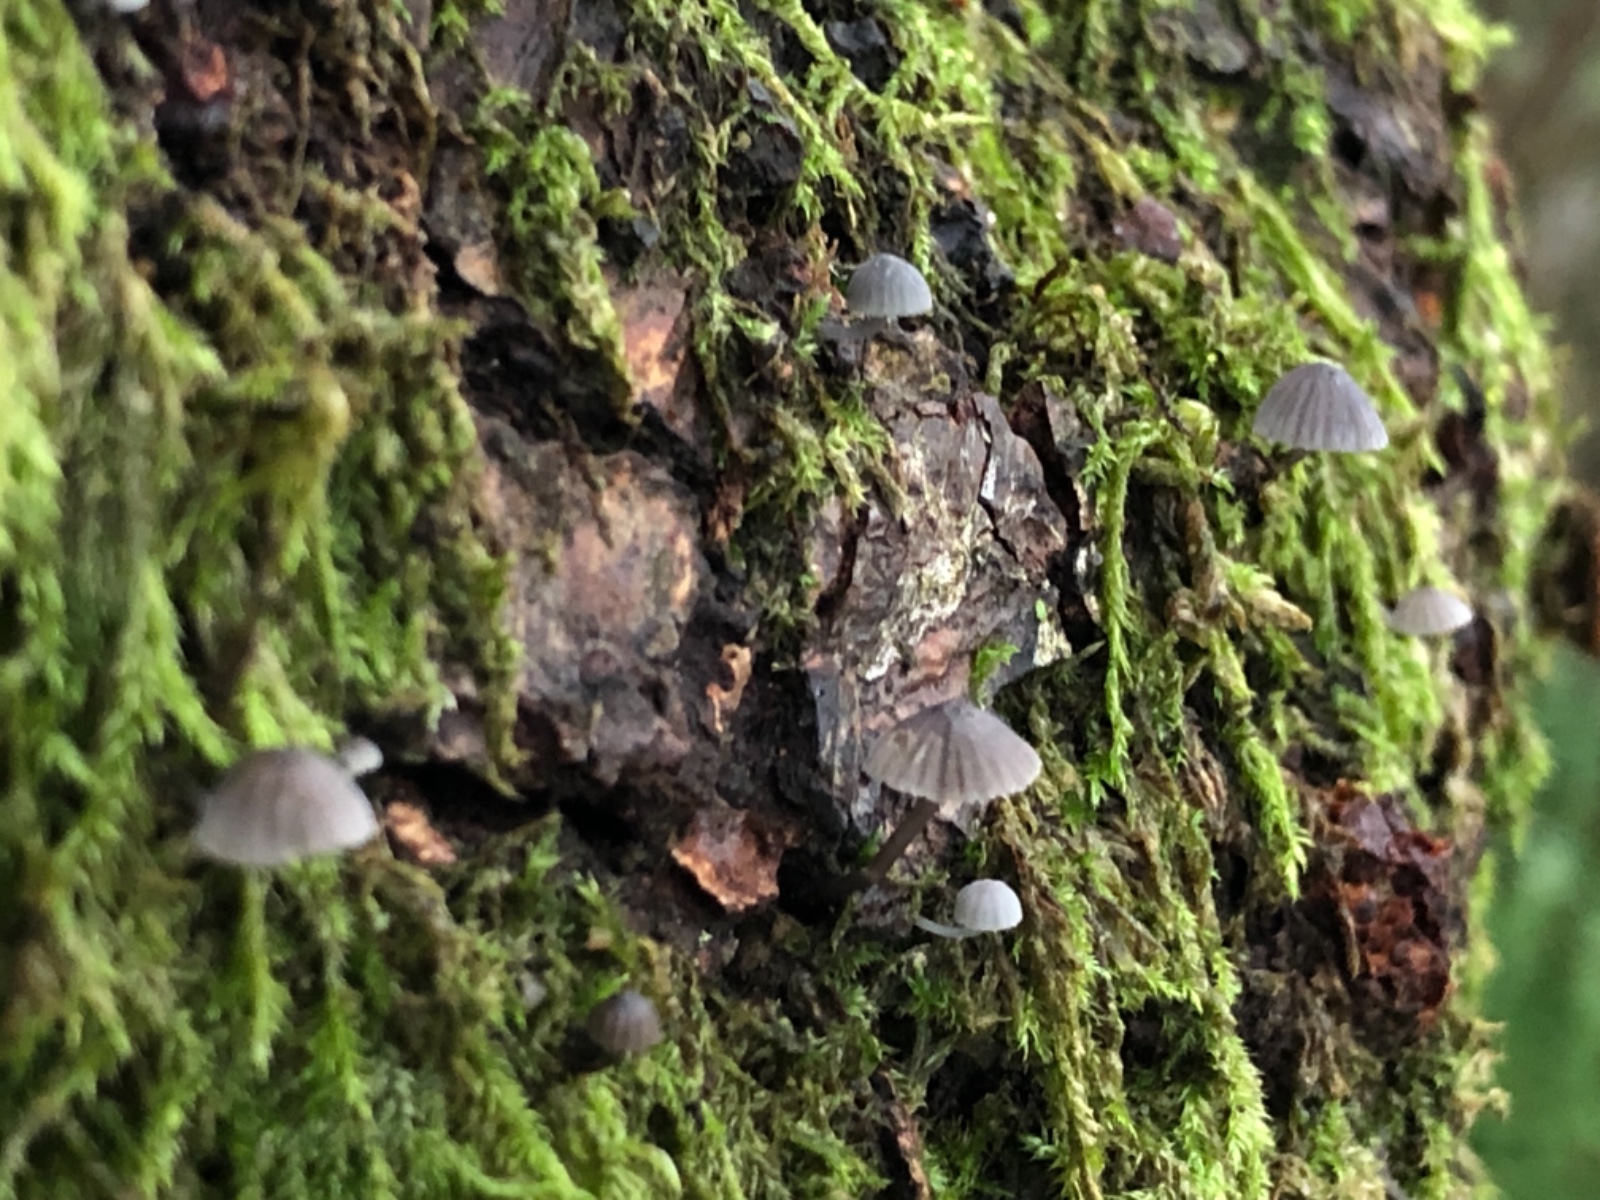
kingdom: Fungi
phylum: Basidiomycota
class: Agaricomycetes
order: Agaricales
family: Mycenaceae
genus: Mycena
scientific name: Mycena pseudocorticola
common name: gråblå bark-huesvamp
